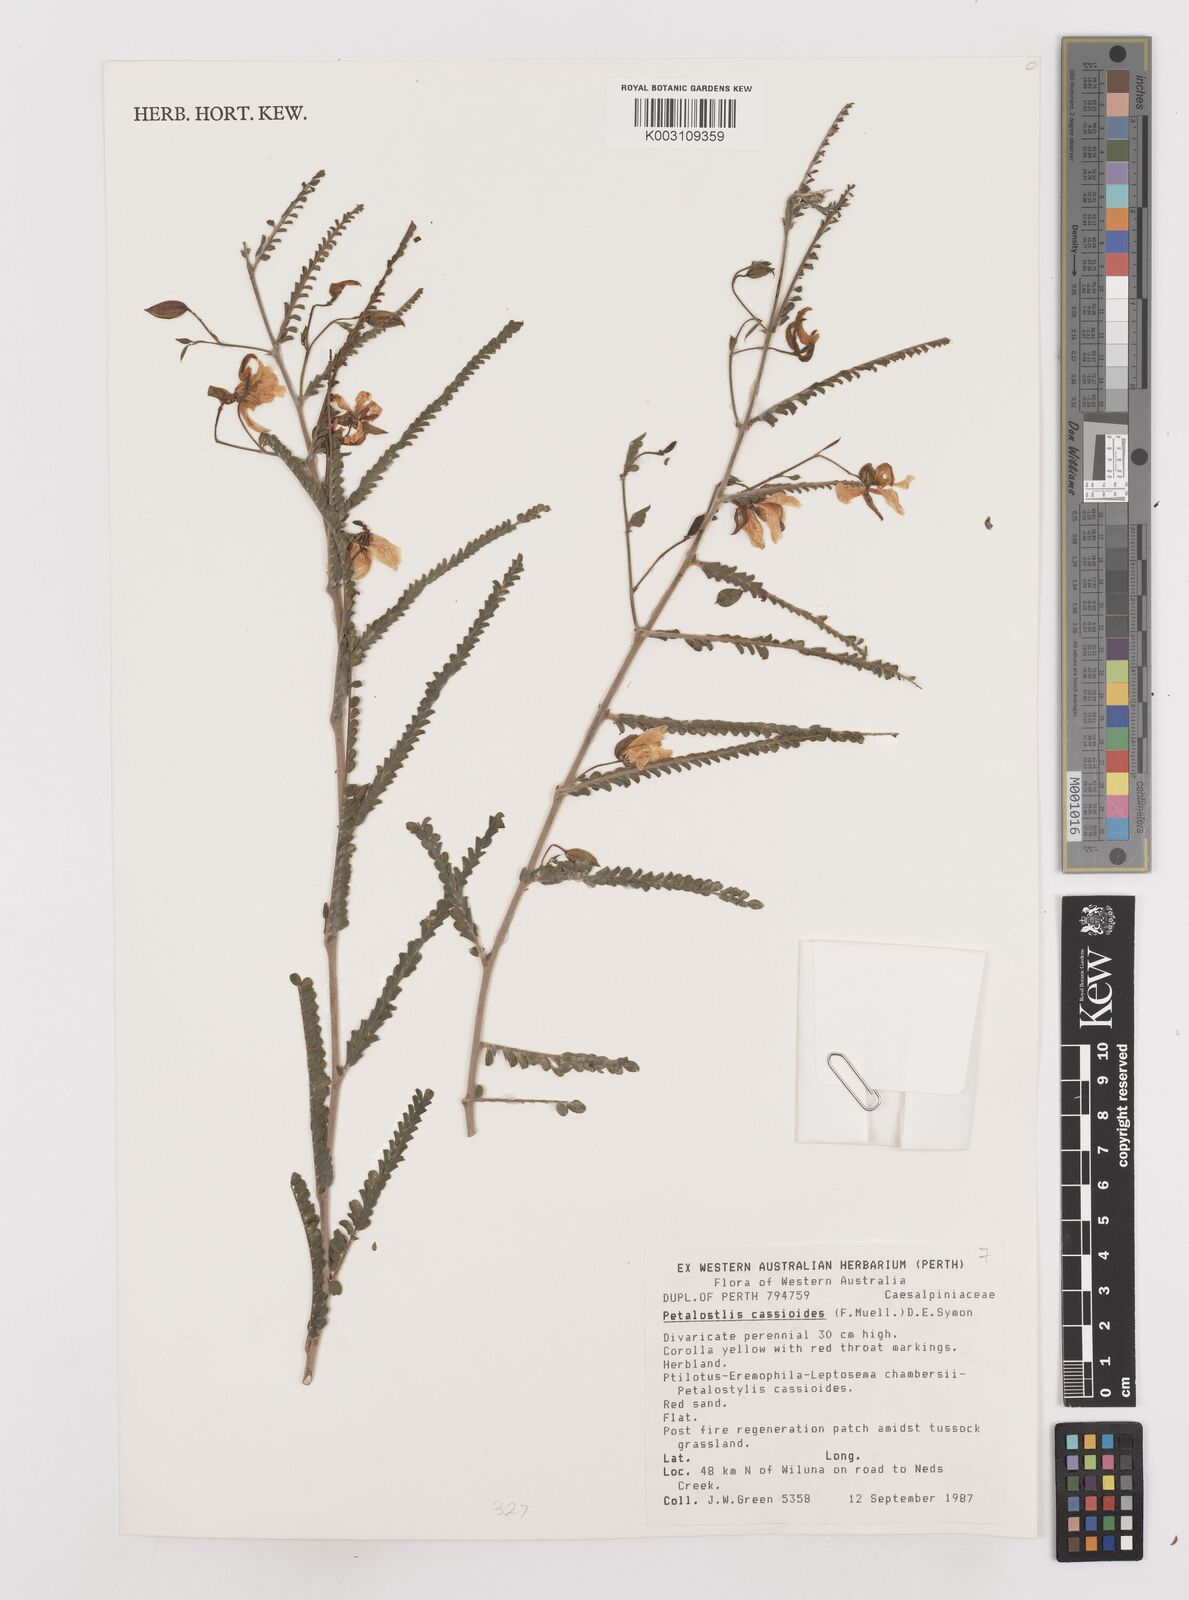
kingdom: Plantae
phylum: Tracheophyta
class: Magnoliopsida
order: Fabales
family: Fabaceae
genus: Petalostylis
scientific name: Petalostylis cassioides
